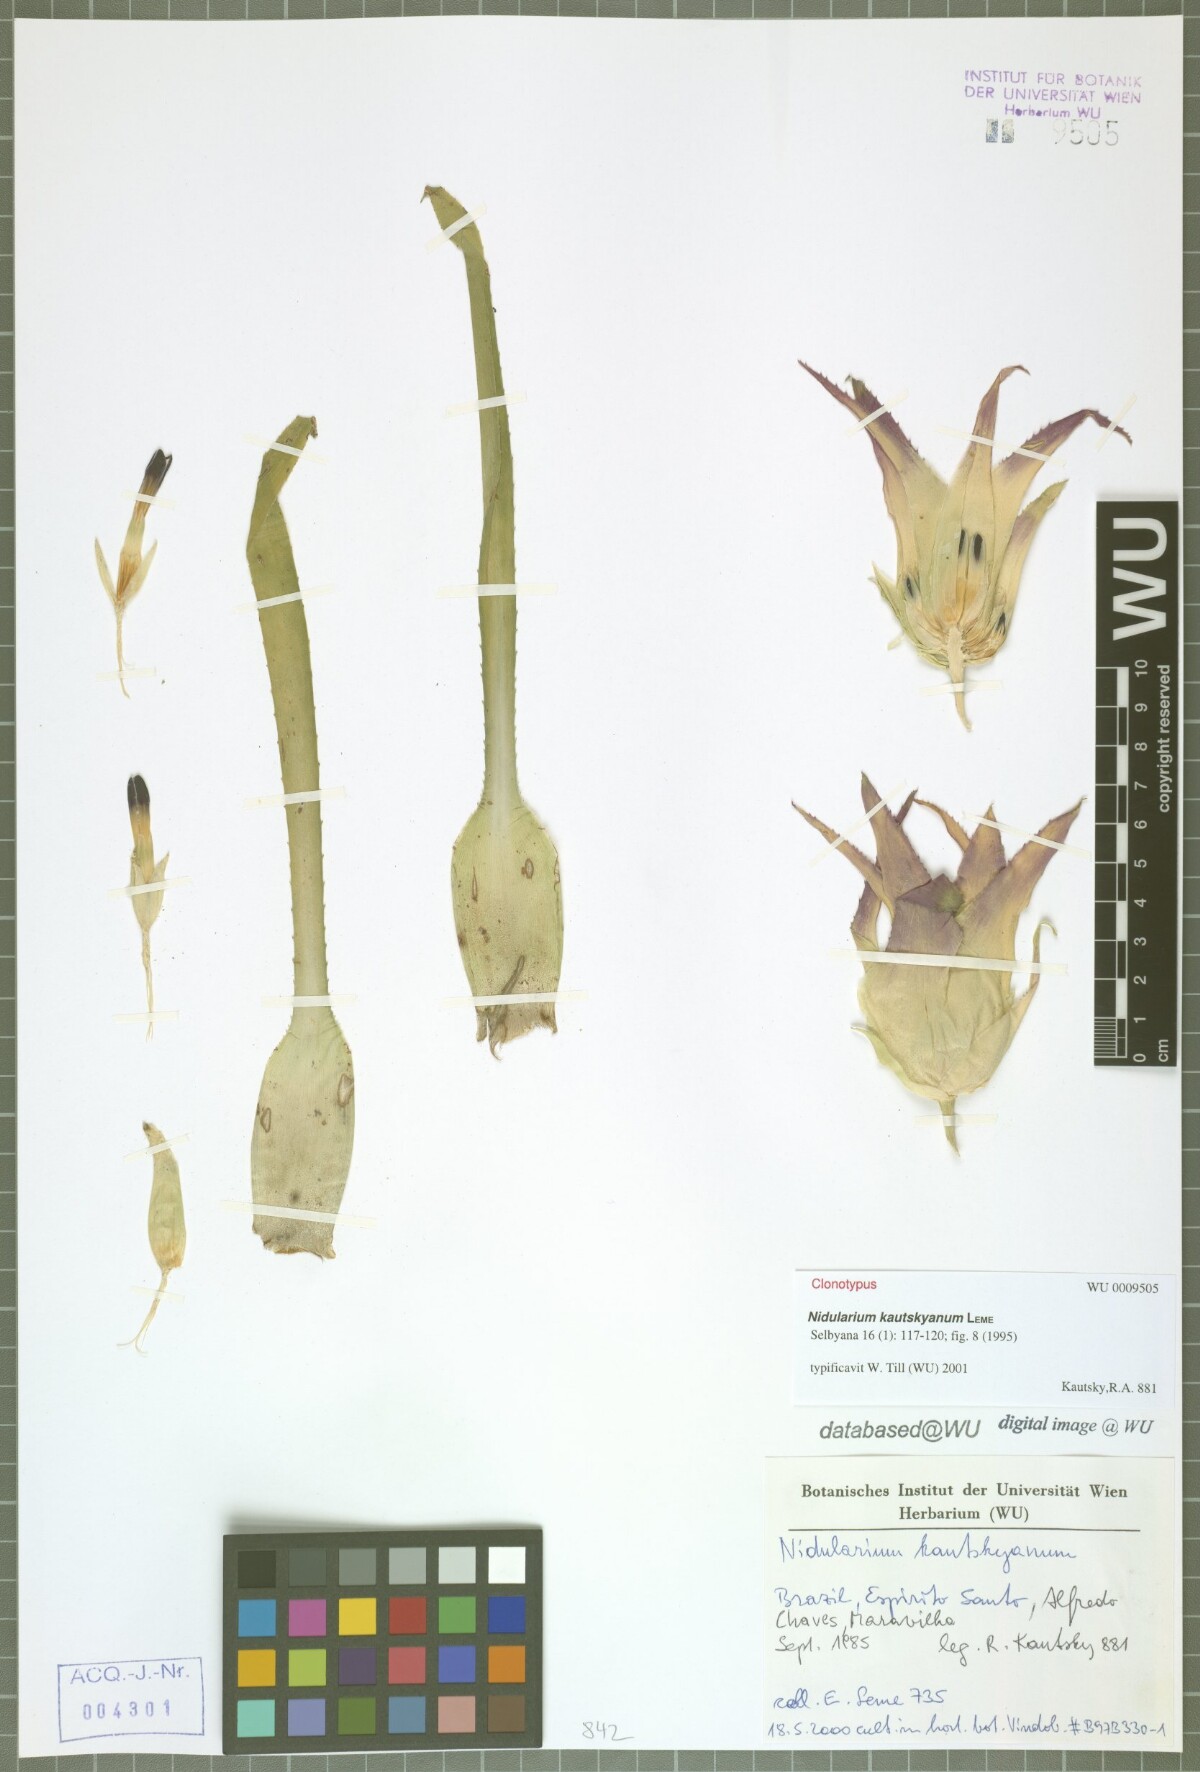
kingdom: Plantae
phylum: Tracheophyta
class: Liliopsida
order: Poales
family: Bromeliaceae
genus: Nidularium
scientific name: Nidularium kautskyanum
